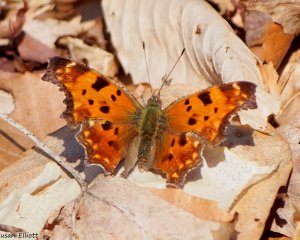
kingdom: Animalia
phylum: Arthropoda
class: Insecta
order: Lepidoptera
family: Nymphalidae
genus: Polygonia
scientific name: Polygonia comma
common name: Eastern Comma
